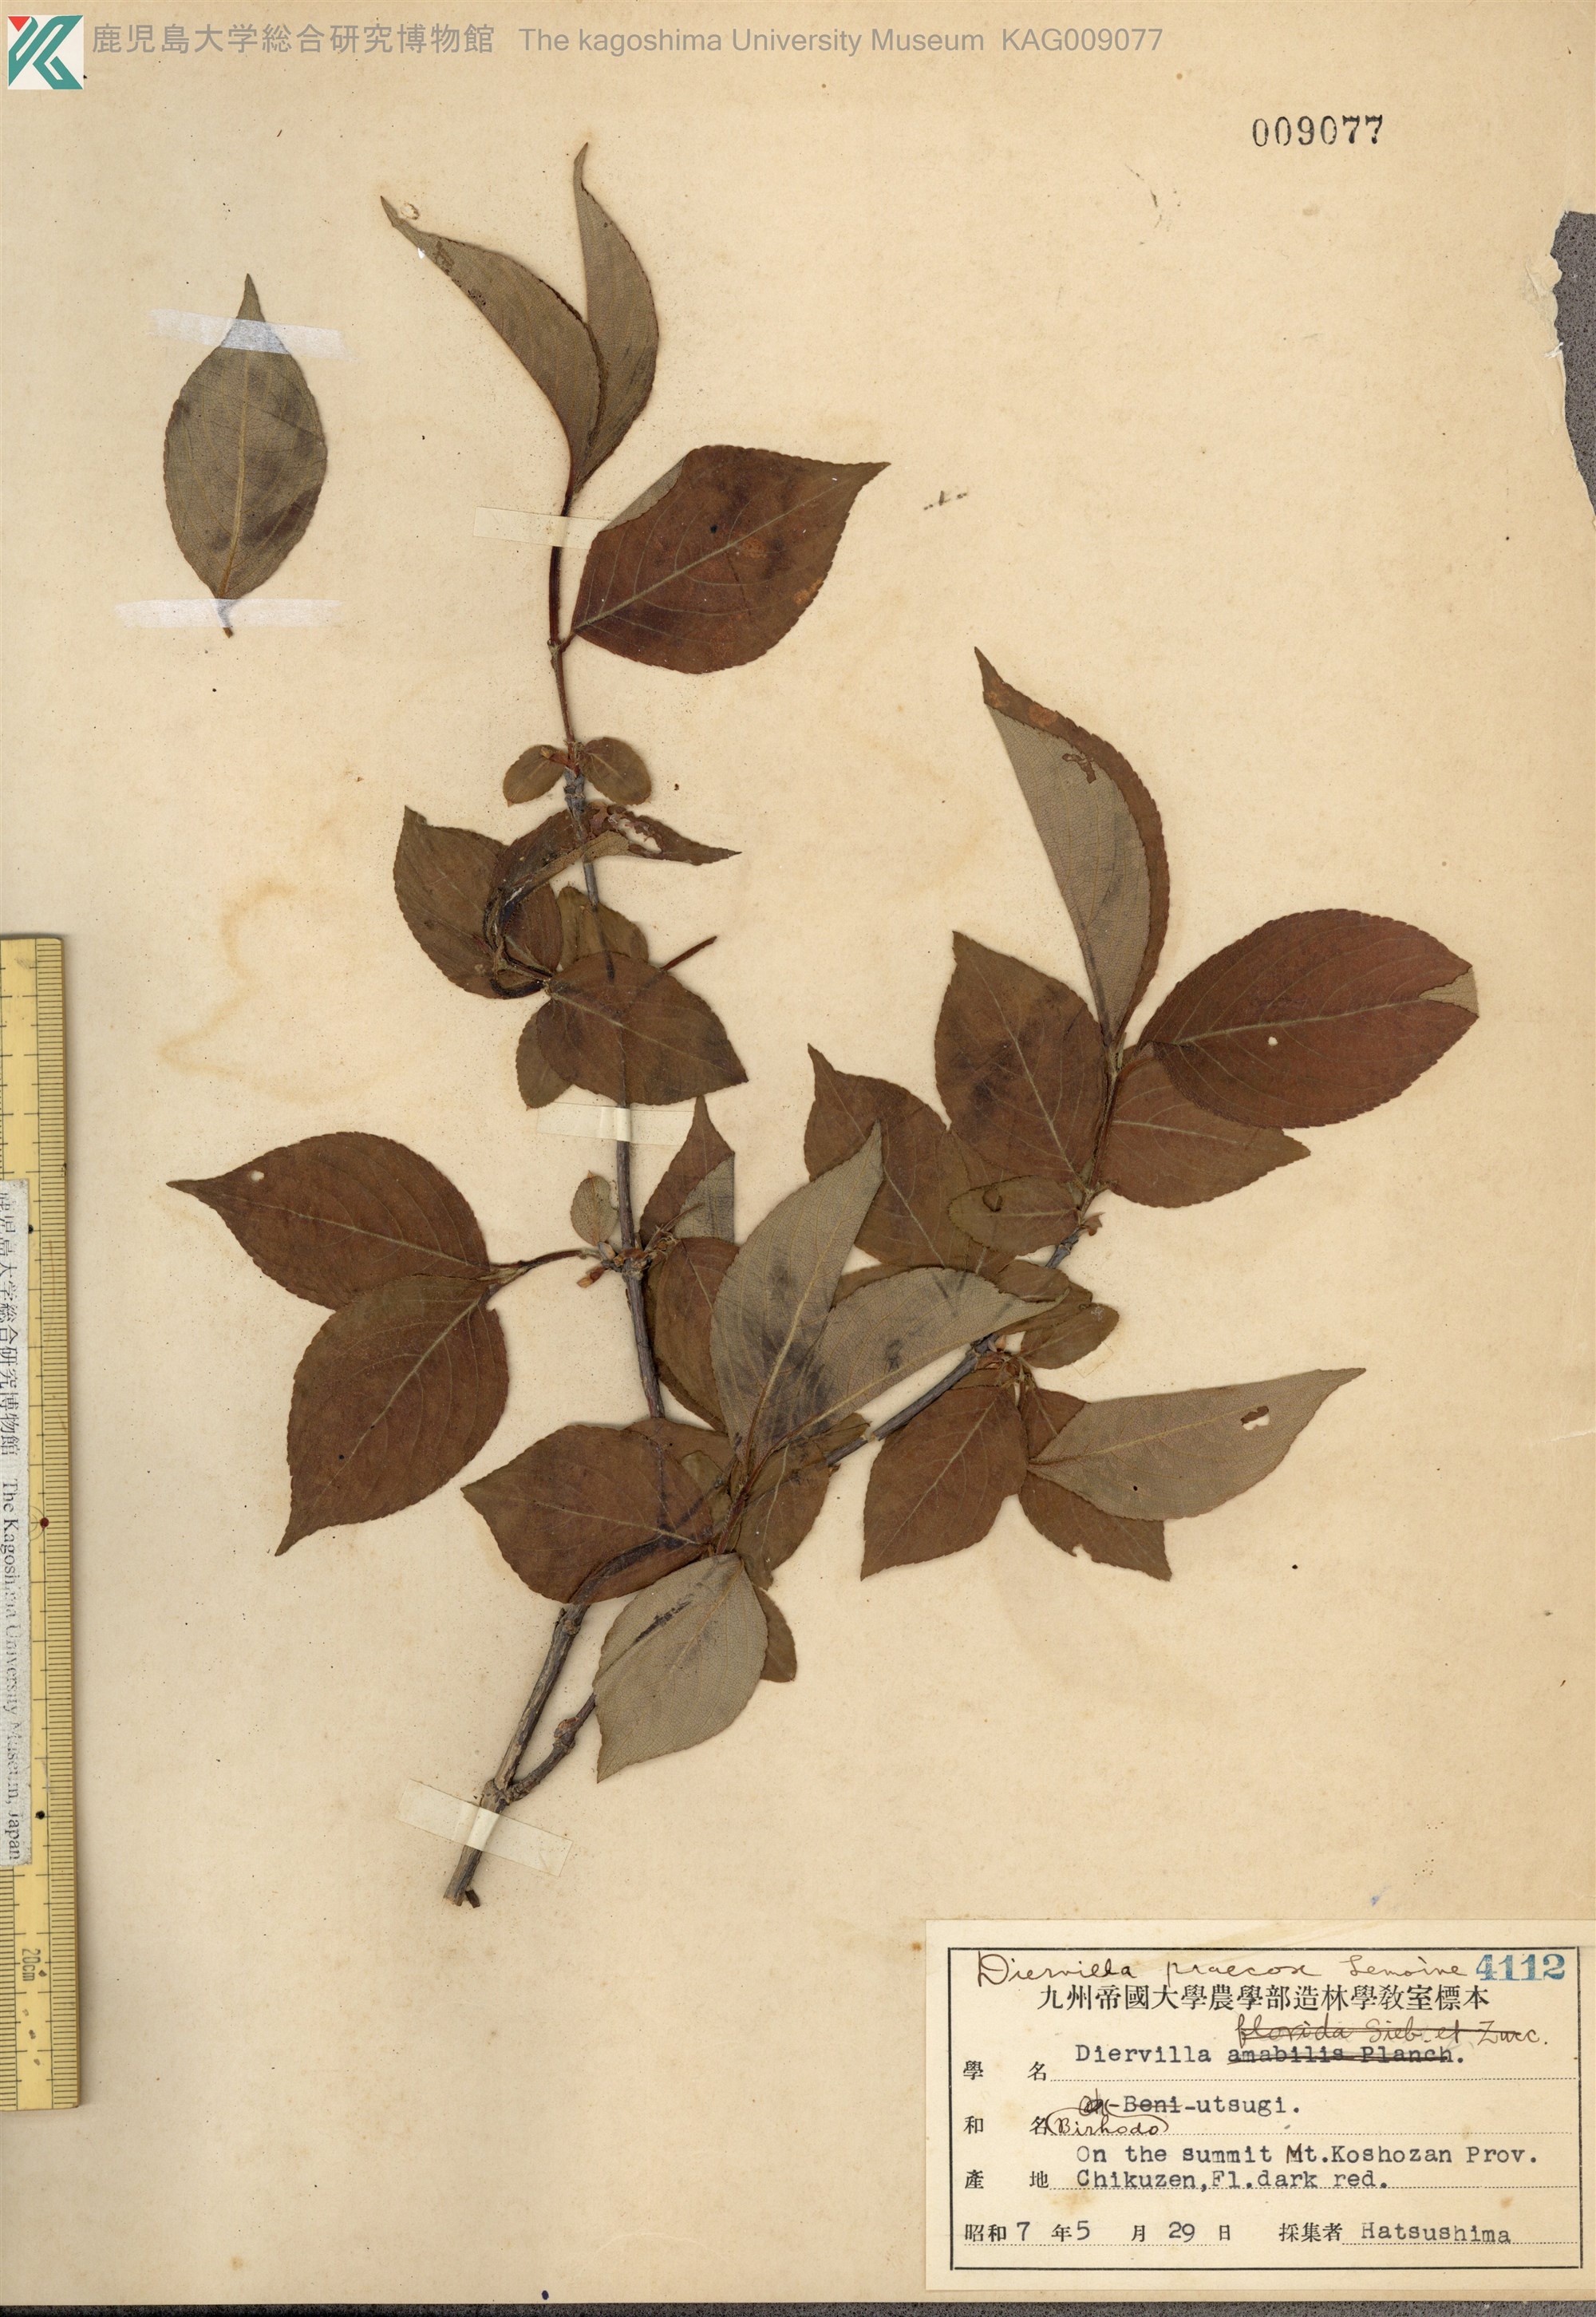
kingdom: Plantae
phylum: Tracheophyta
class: Magnoliopsida
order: Dipsacales
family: Caprifoliaceae
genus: Weigela
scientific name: Weigela florida
